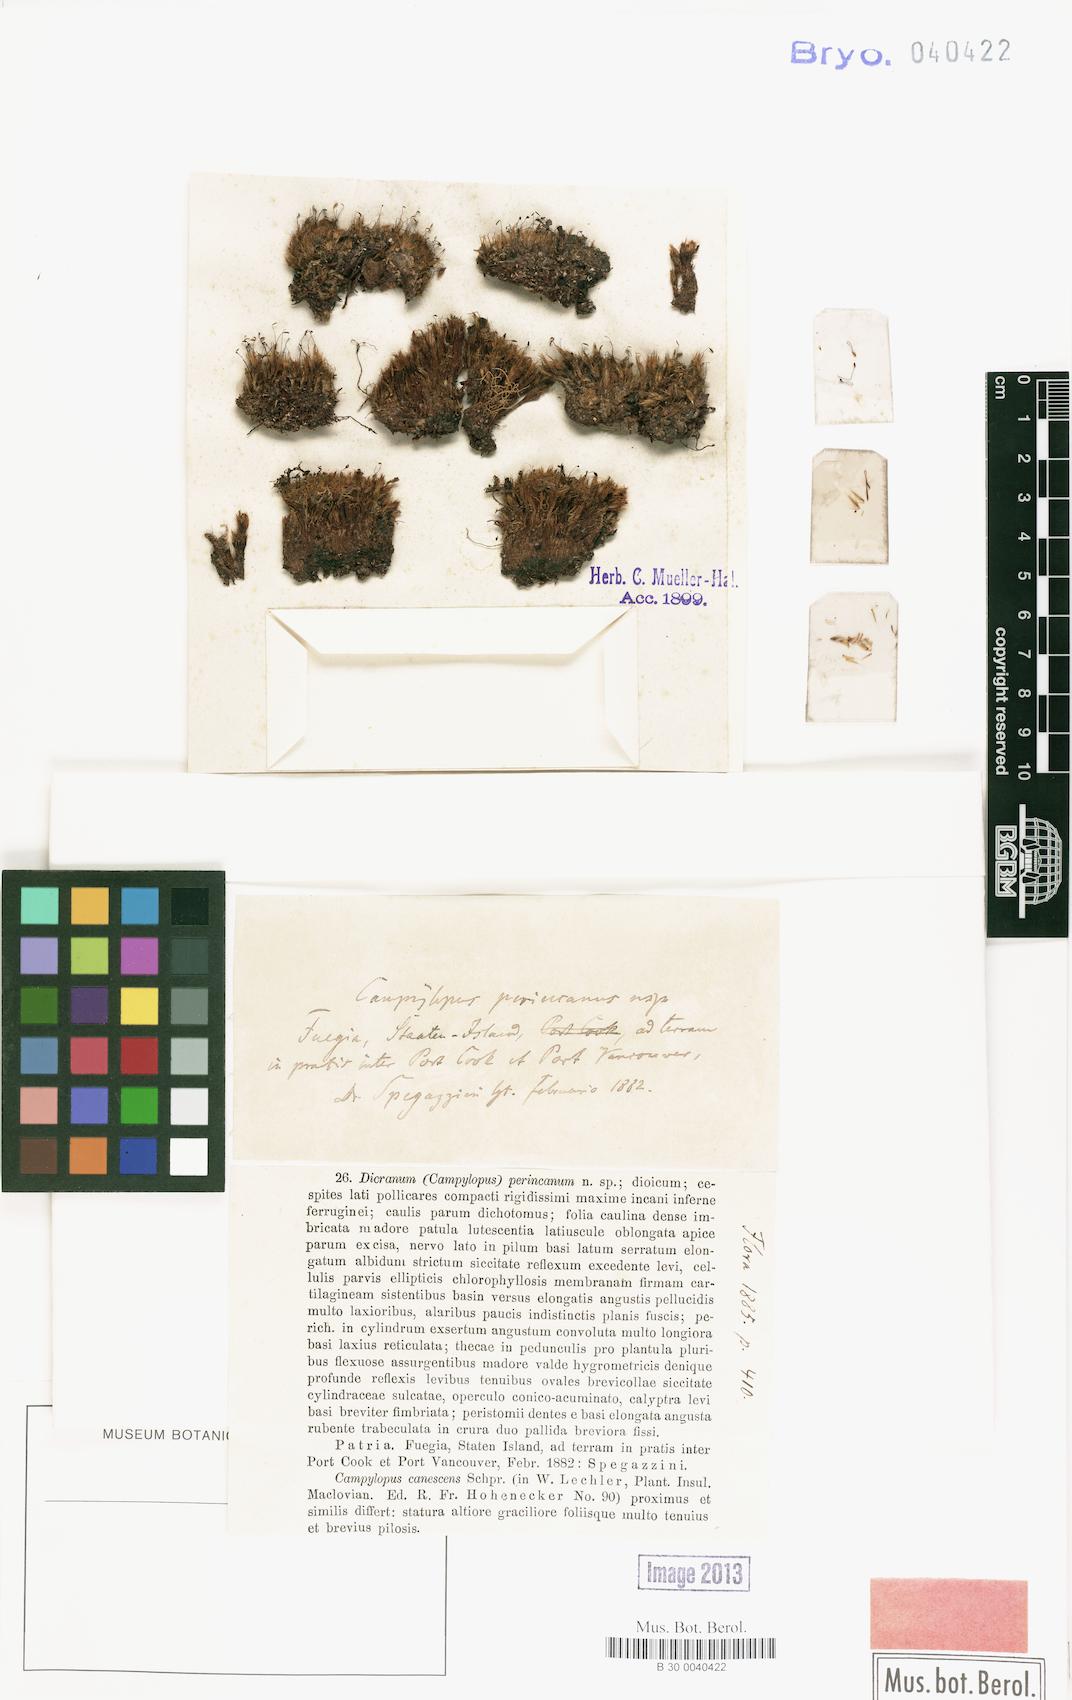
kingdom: Plantae
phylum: Bryophyta
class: Bryopsida
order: Dicranales
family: Leucobryaceae
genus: Campylopus
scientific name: Campylopus introflexus
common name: Heath star moss
